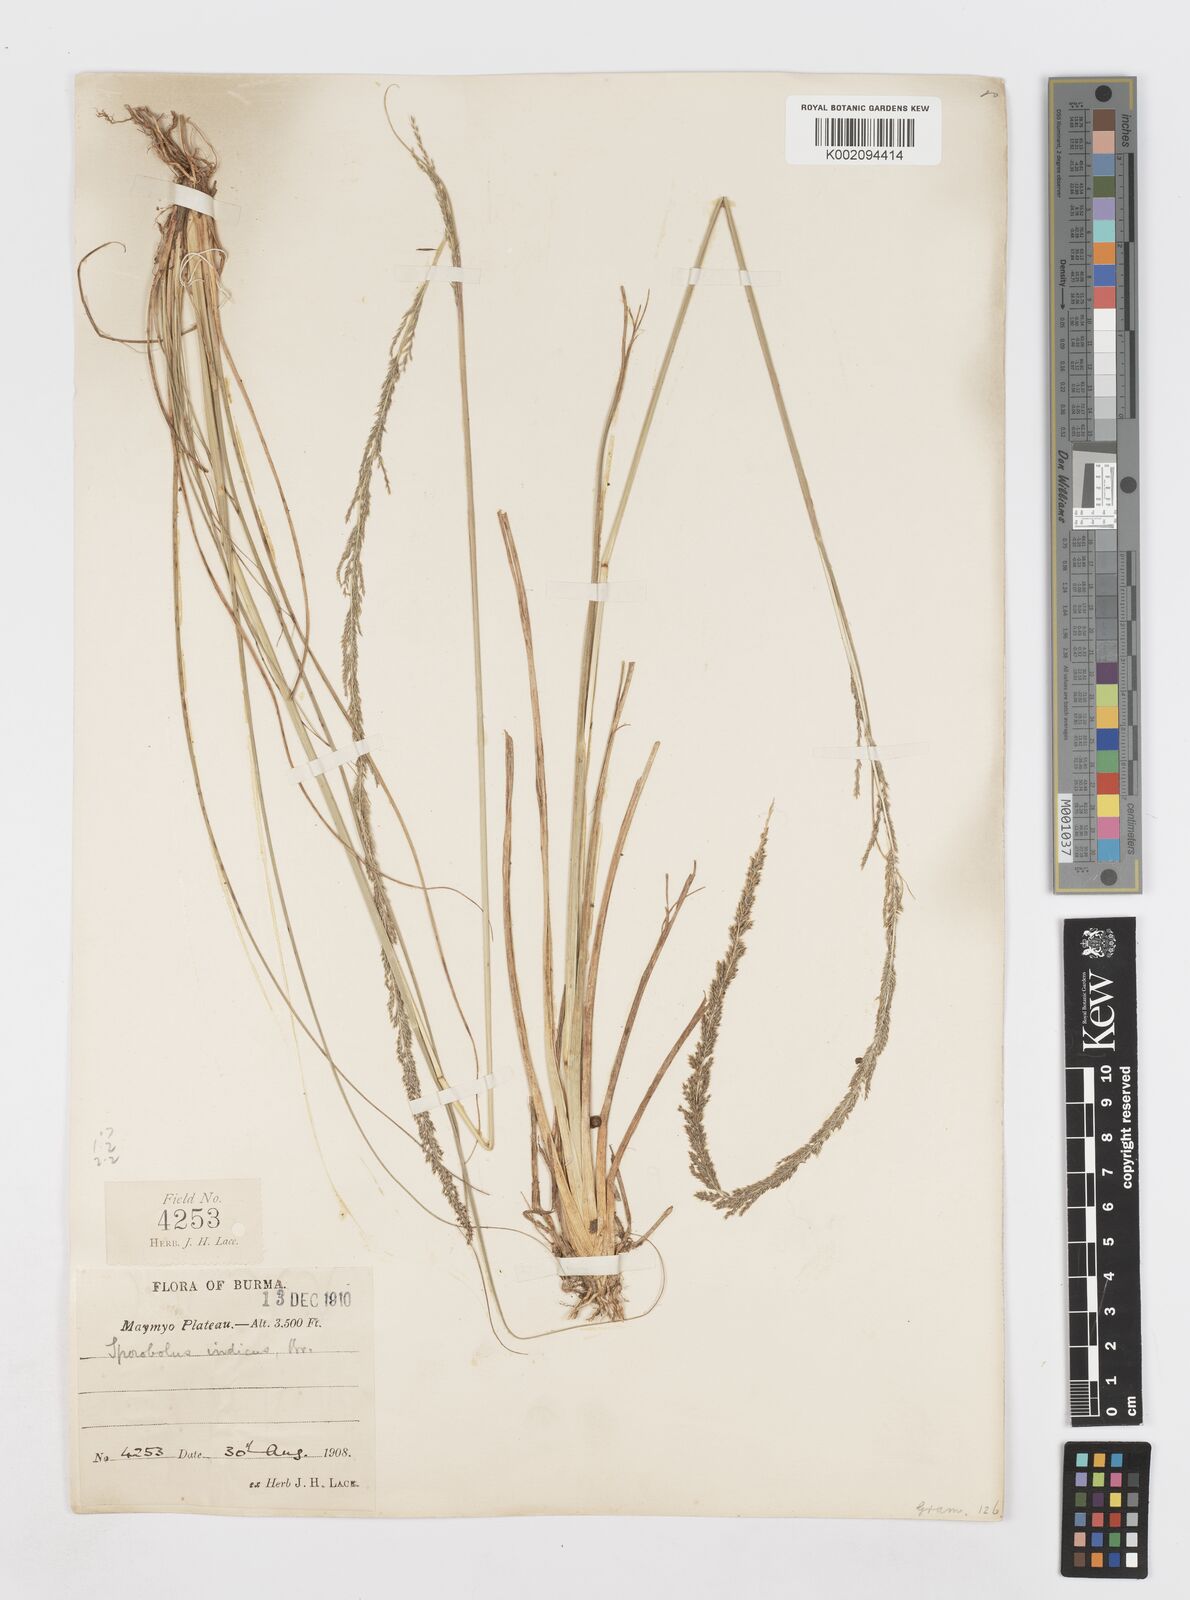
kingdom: Plantae
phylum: Tracheophyta
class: Liliopsida
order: Poales
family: Poaceae
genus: Sporobolus
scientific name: Sporobolus fertilis
